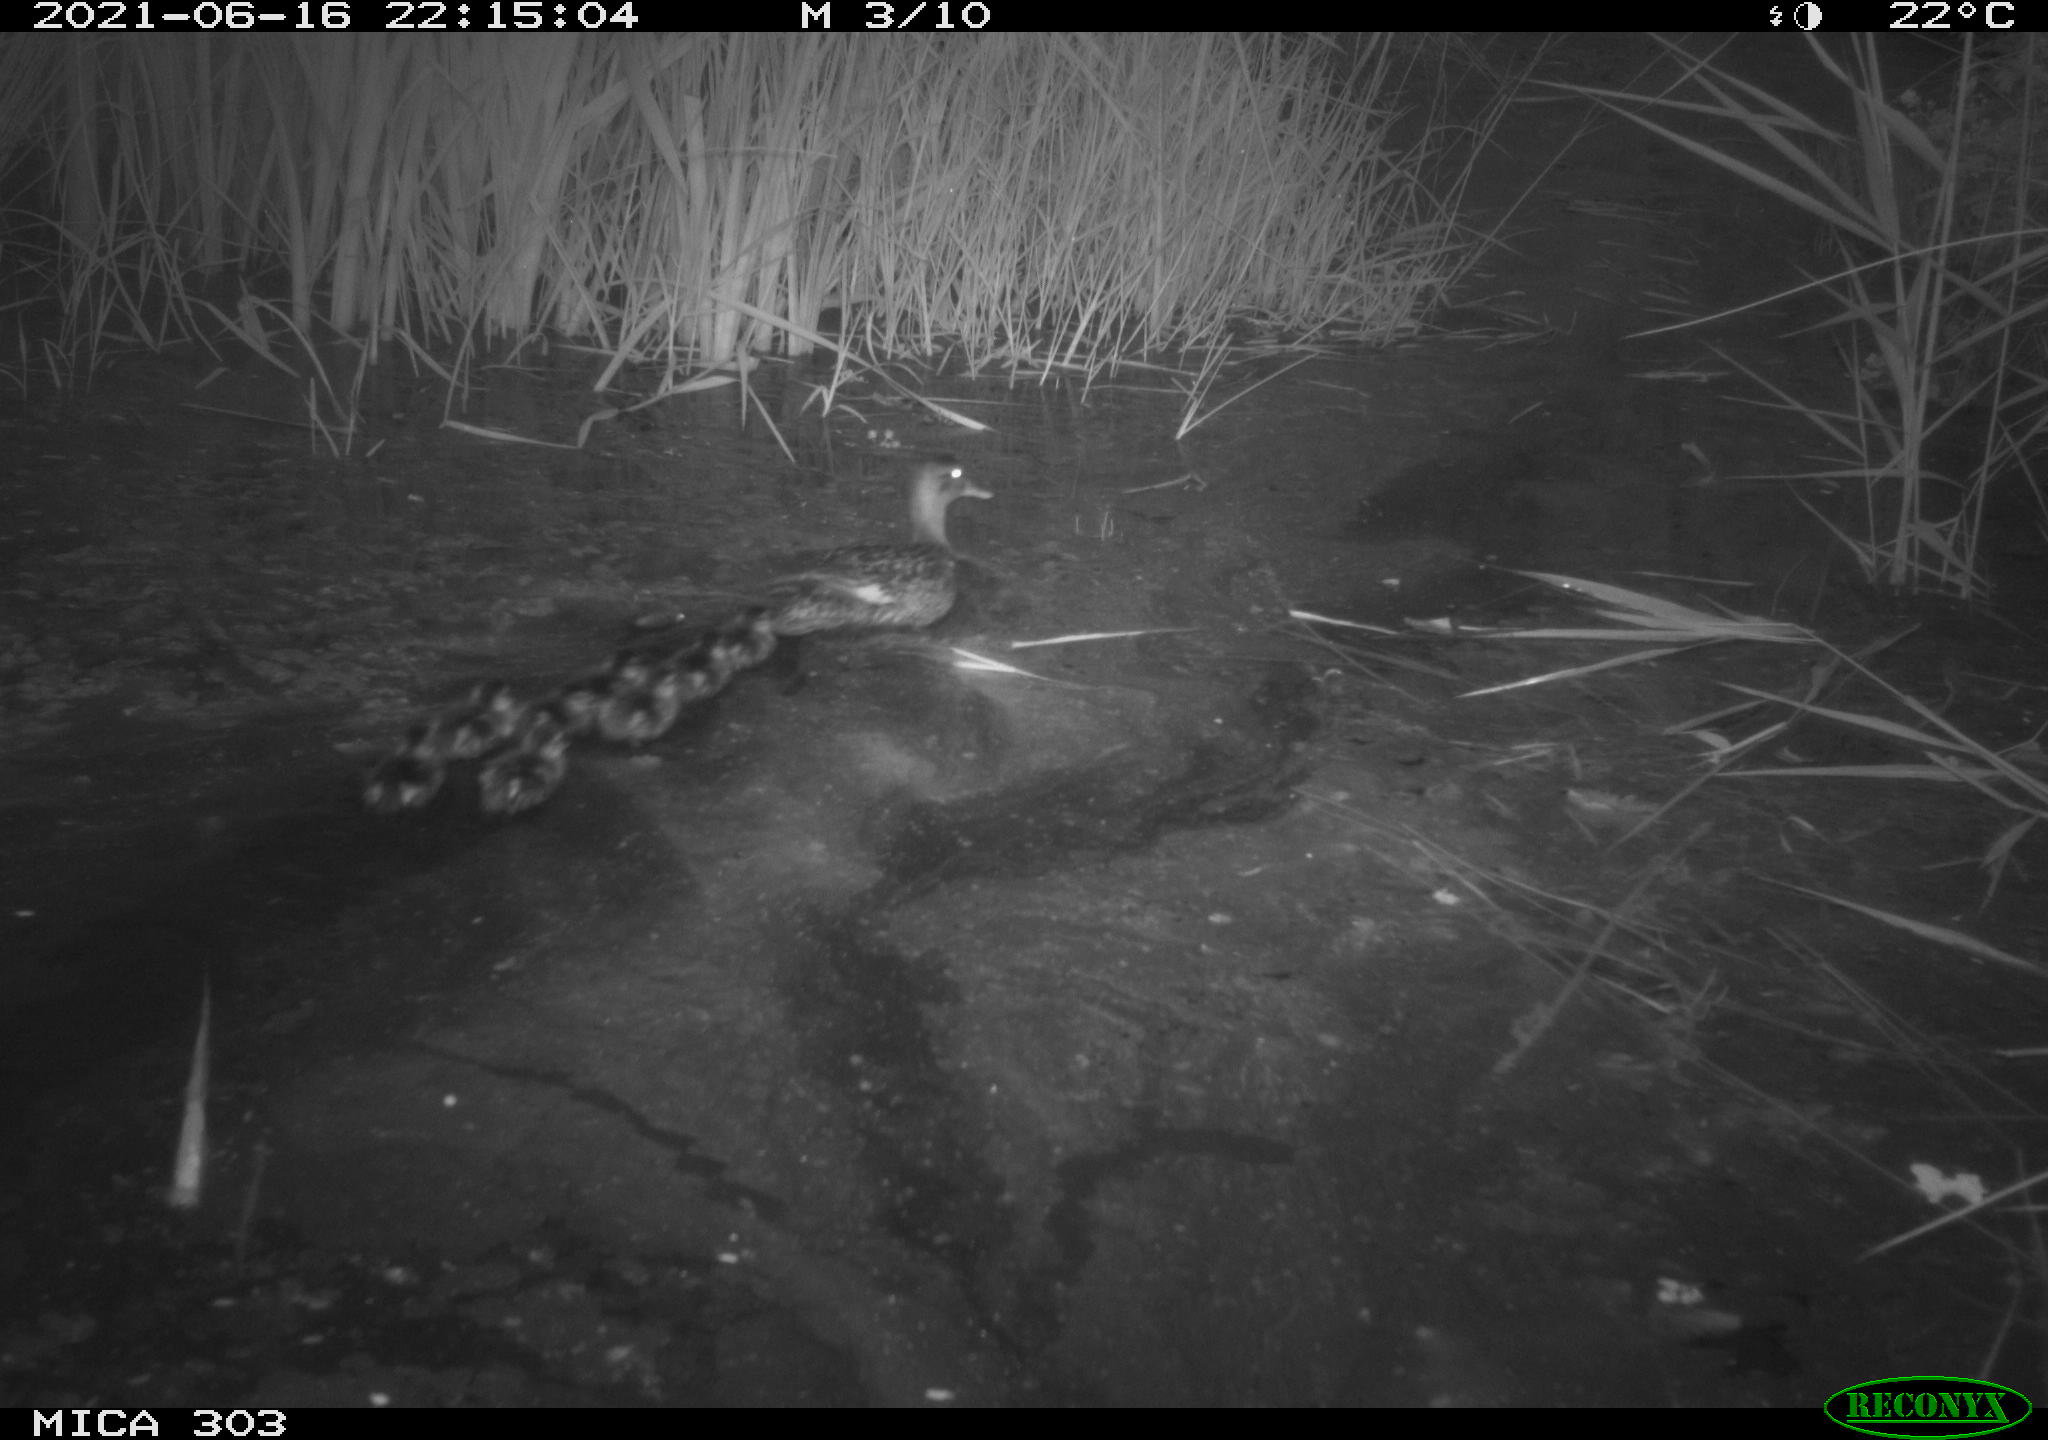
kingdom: Animalia
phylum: Chordata
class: Aves
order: Anseriformes
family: Anatidae
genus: Anas
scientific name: Anas platyrhynchos
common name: Mallard
